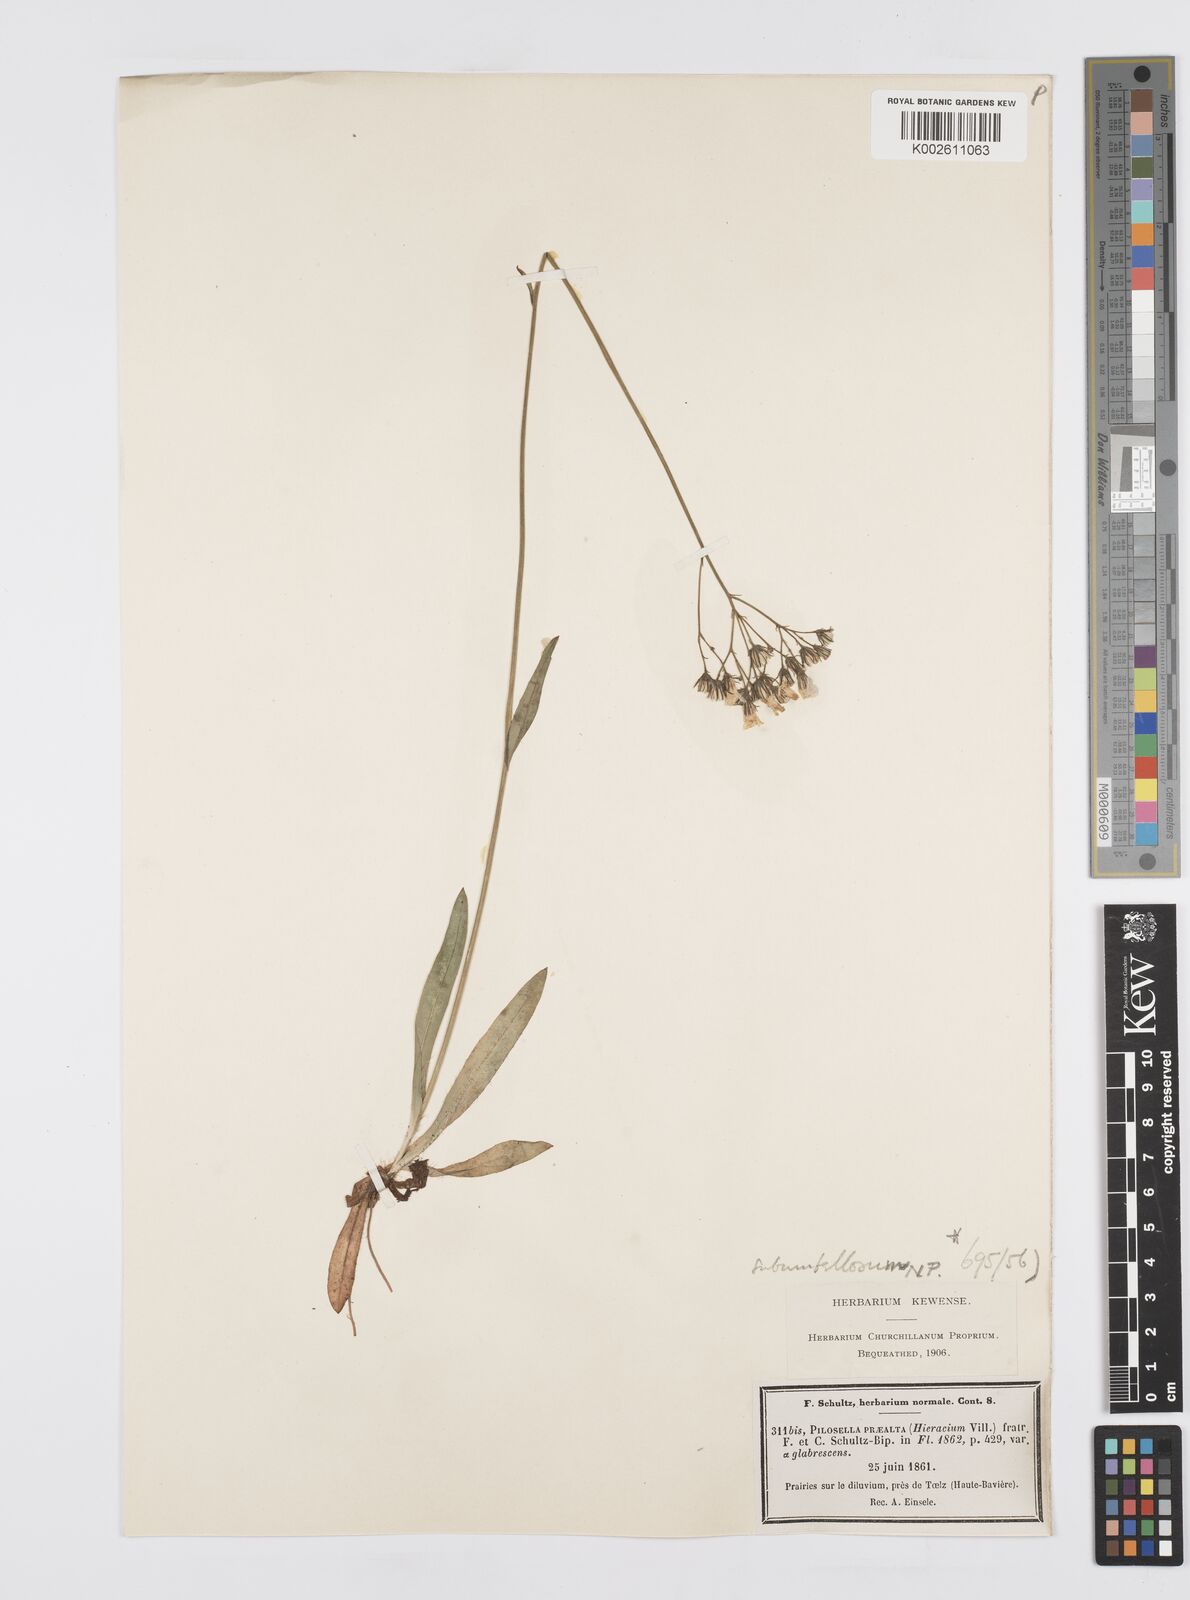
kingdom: Plantae
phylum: Tracheophyta
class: Magnoliopsida
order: Asterales
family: Asteraceae
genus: Pilosella
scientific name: Pilosella piloselloides
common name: Glaucous king-devil
